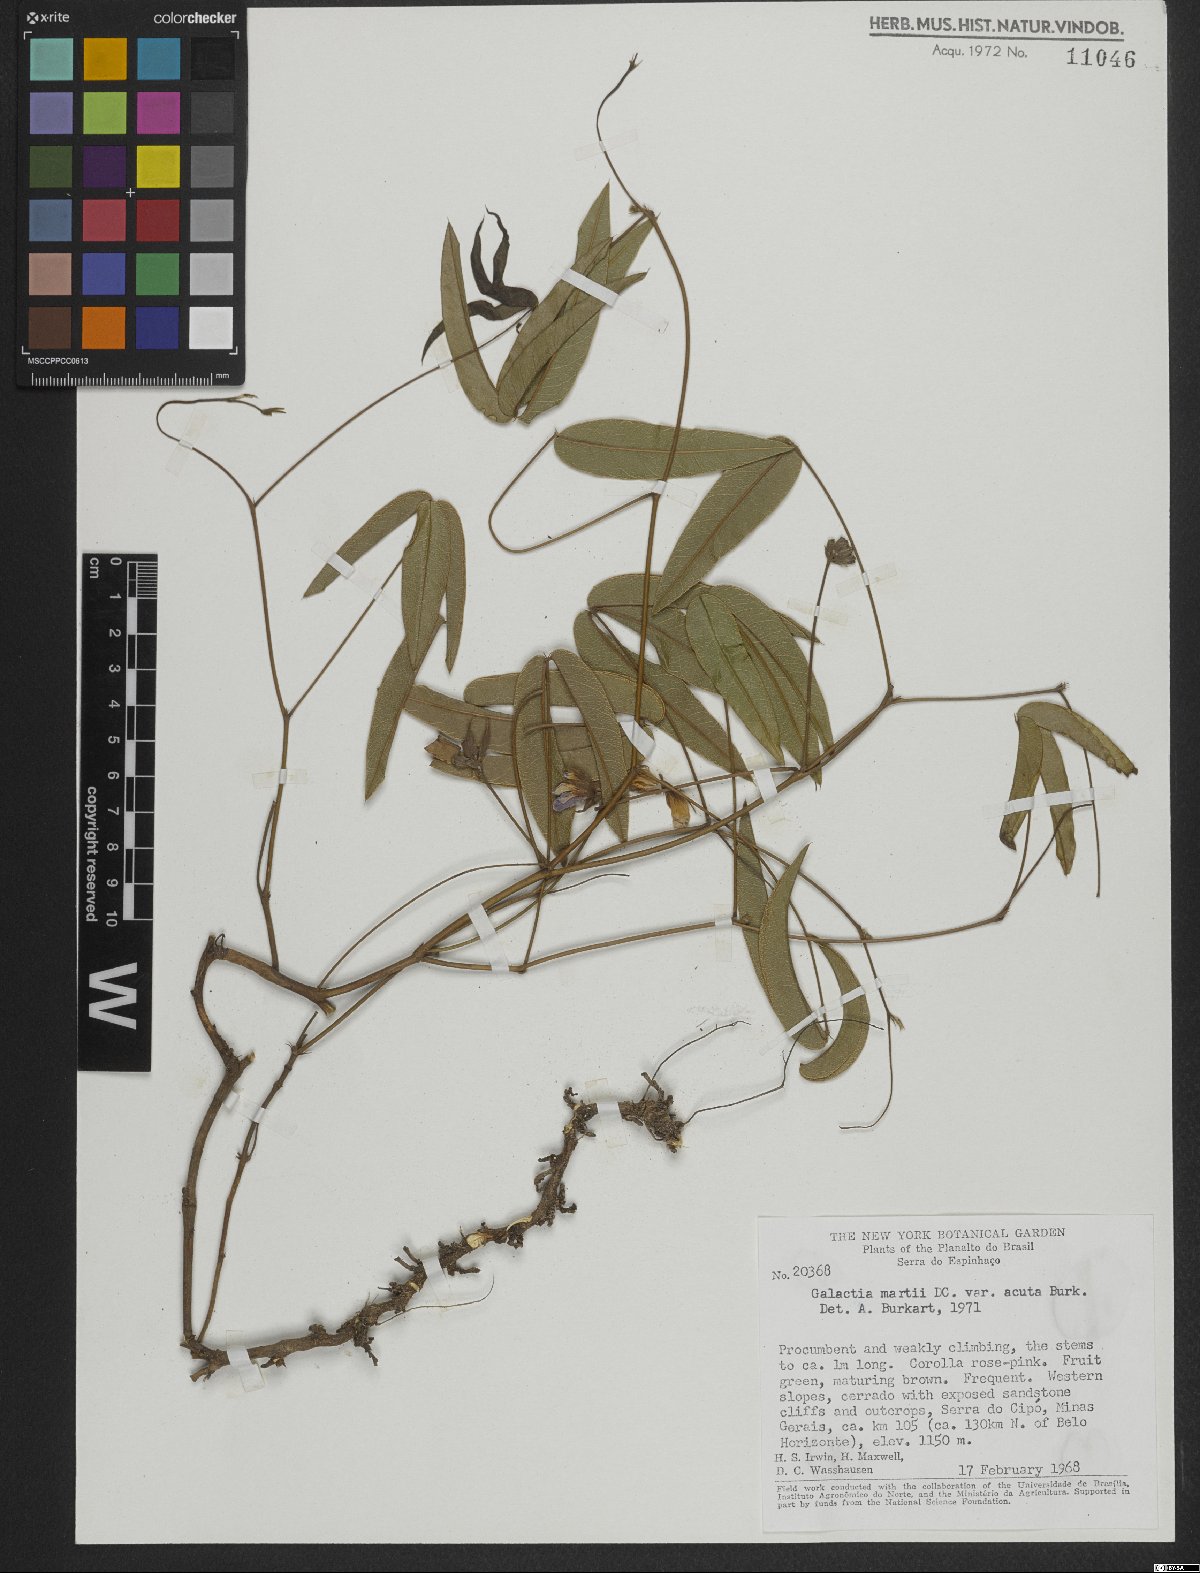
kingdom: Plantae
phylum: Tracheophyta
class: Magnoliopsida
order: Fabales
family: Fabaceae
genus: Betencourtia
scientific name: Betencourtia neesii
